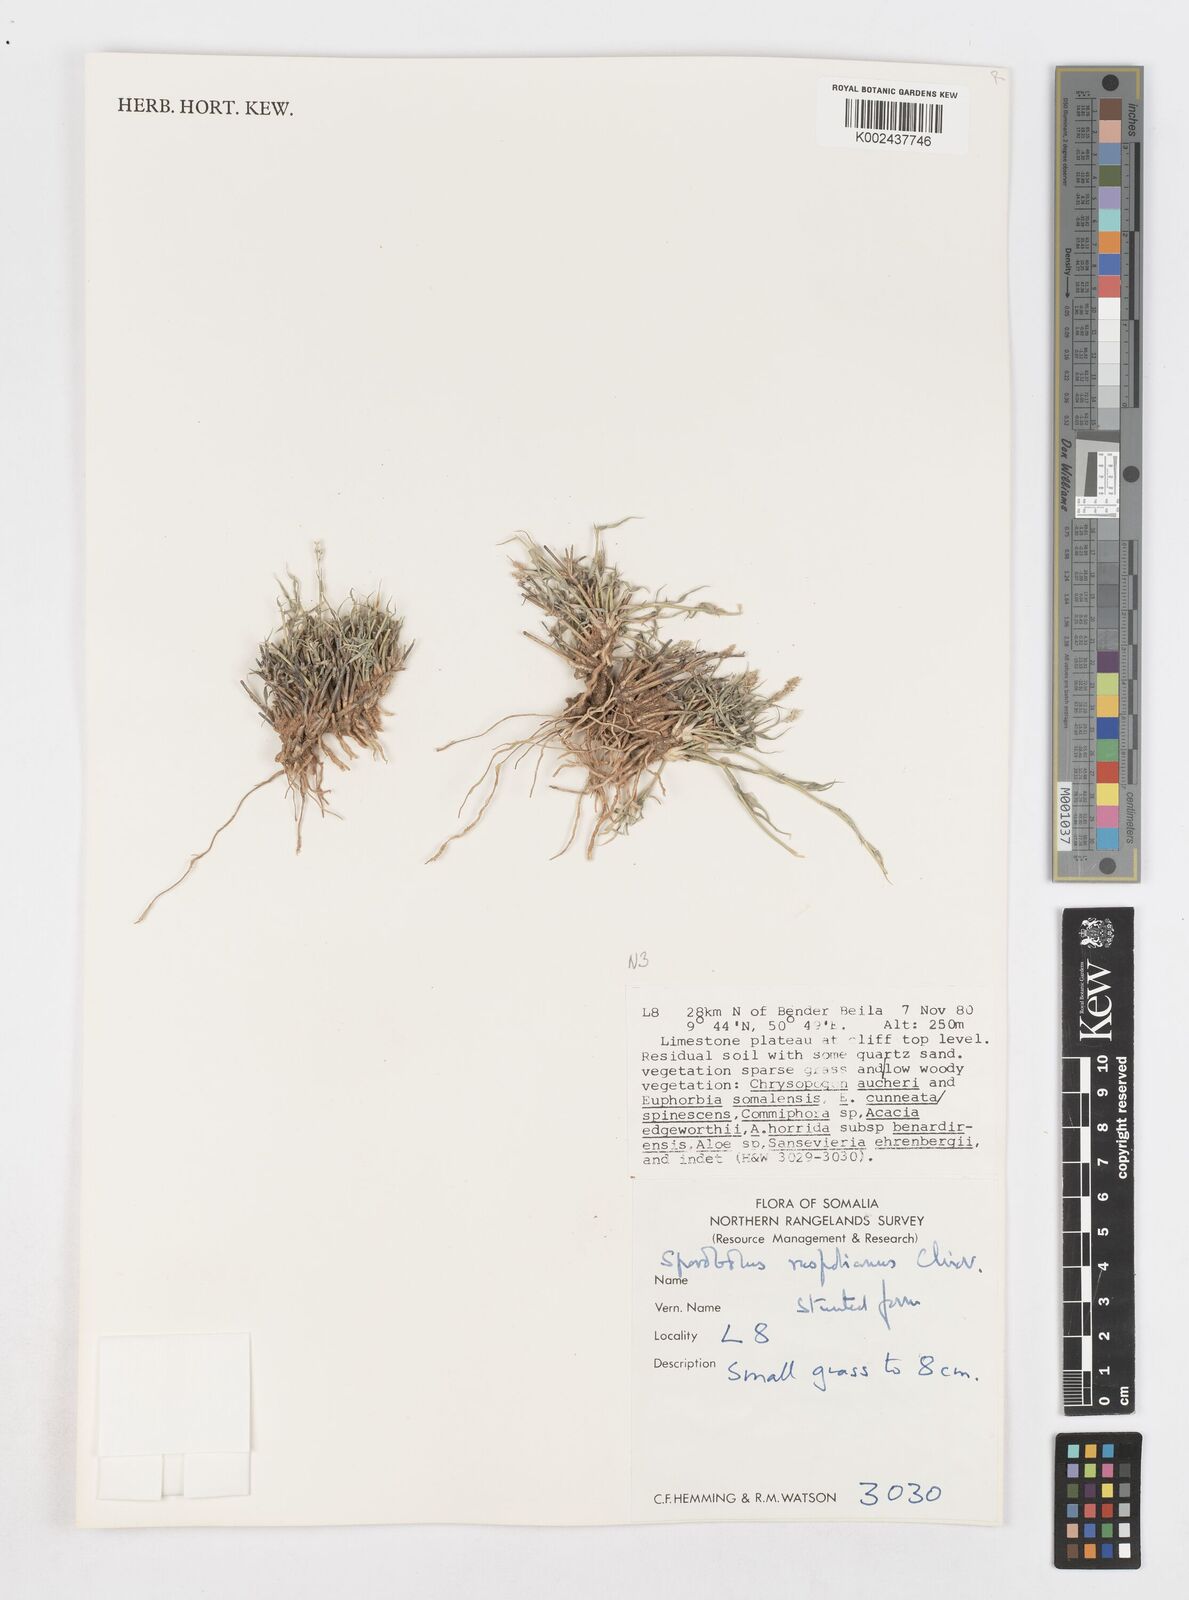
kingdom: Plantae
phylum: Tracheophyta
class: Liliopsida
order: Poales
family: Poaceae
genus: Sporobolus
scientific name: Sporobolus ruspolianus
